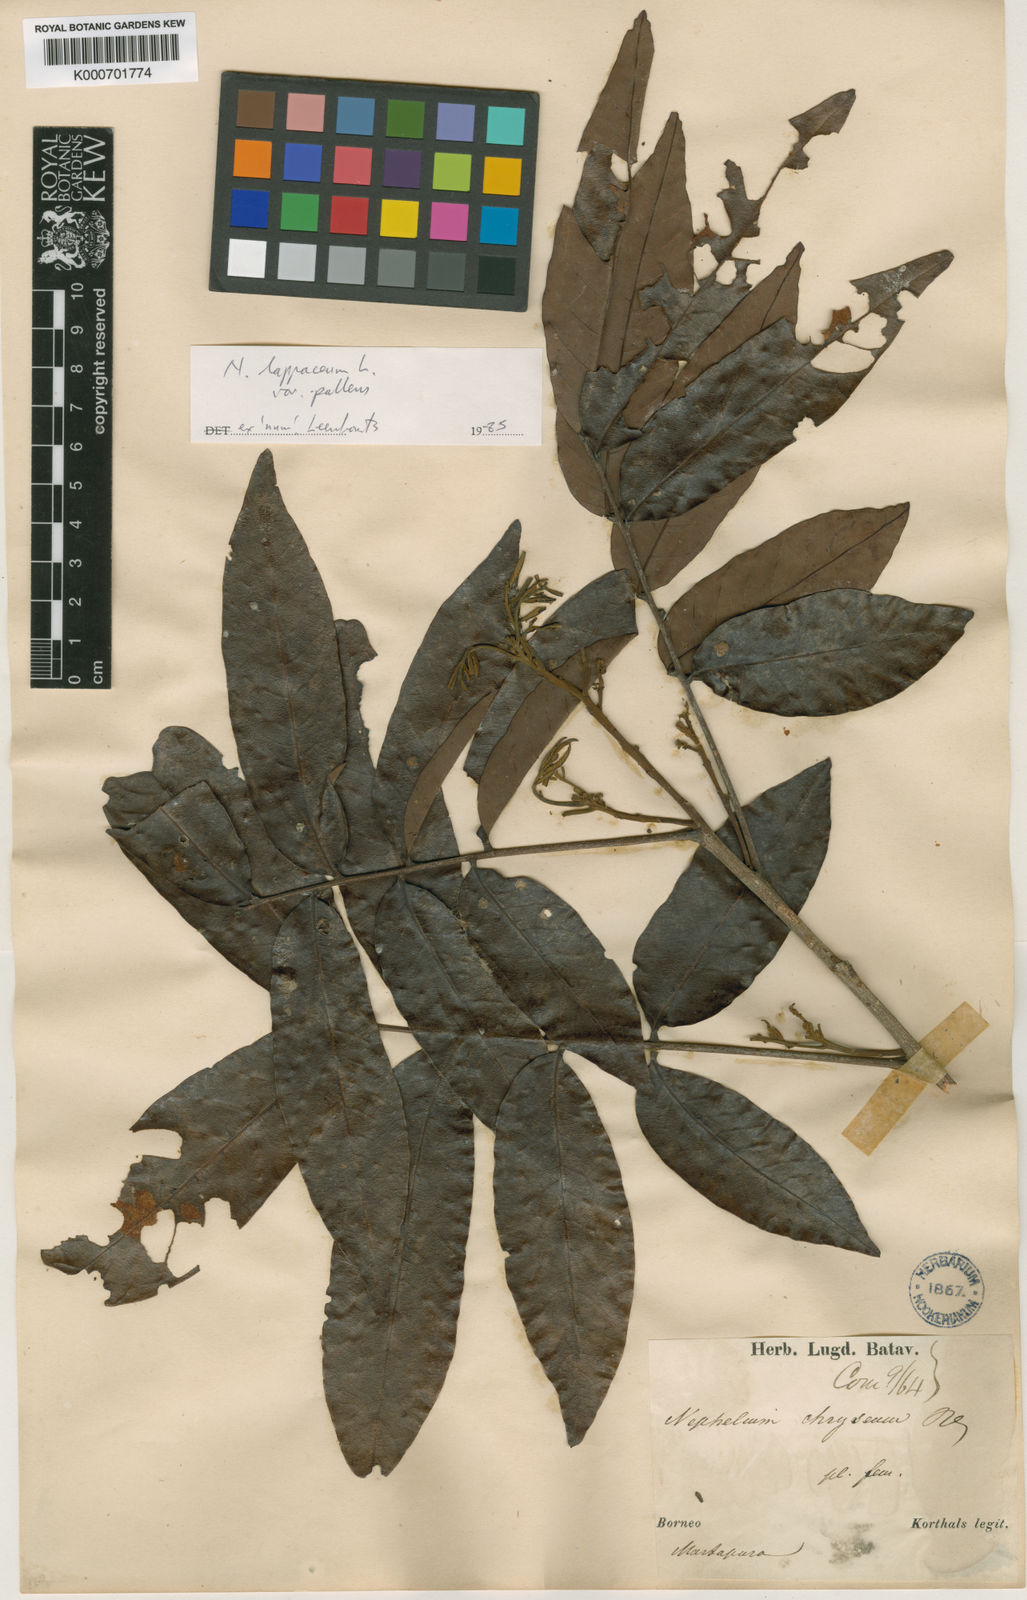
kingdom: Plantae
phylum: Tracheophyta
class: Magnoliopsida
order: Sapindales
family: Sapindaceae
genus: Nephelium
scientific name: Nephelium lappaceum
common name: Rambutan
